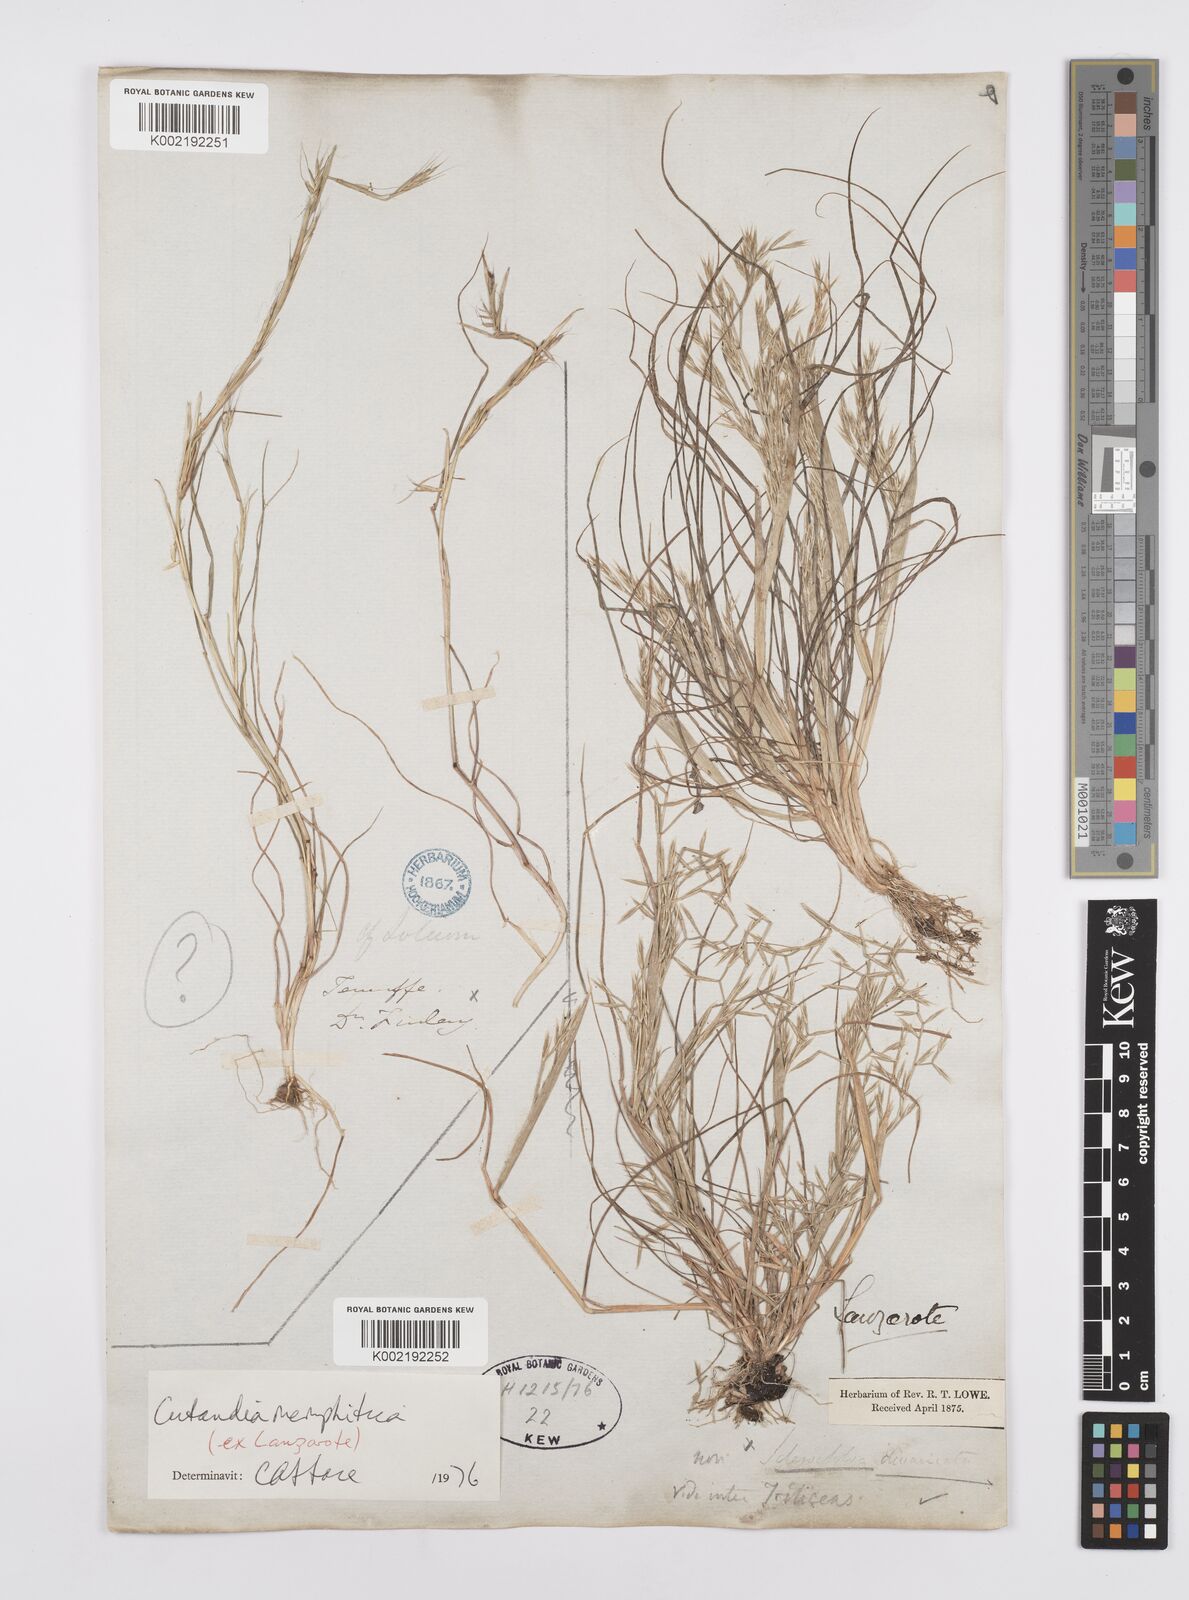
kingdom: Plantae
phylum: Tracheophyta
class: Liliopsida
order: Poales
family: Poaceae
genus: Cutandia
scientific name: Cutandia memphitica
